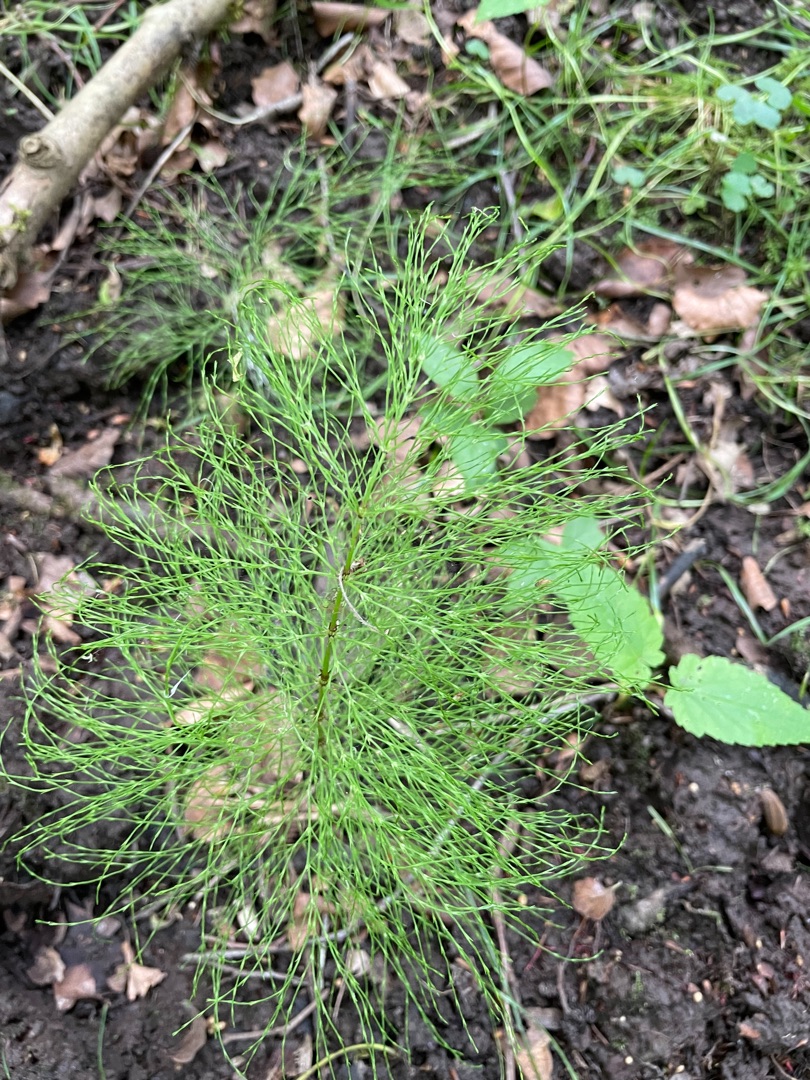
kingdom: Plantae
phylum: Tracheophyta
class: Polypodiopsida
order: Equisetales
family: Equisetaceae
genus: Equisetum
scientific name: Equisetum sylvaticum
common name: Skov-padderok
